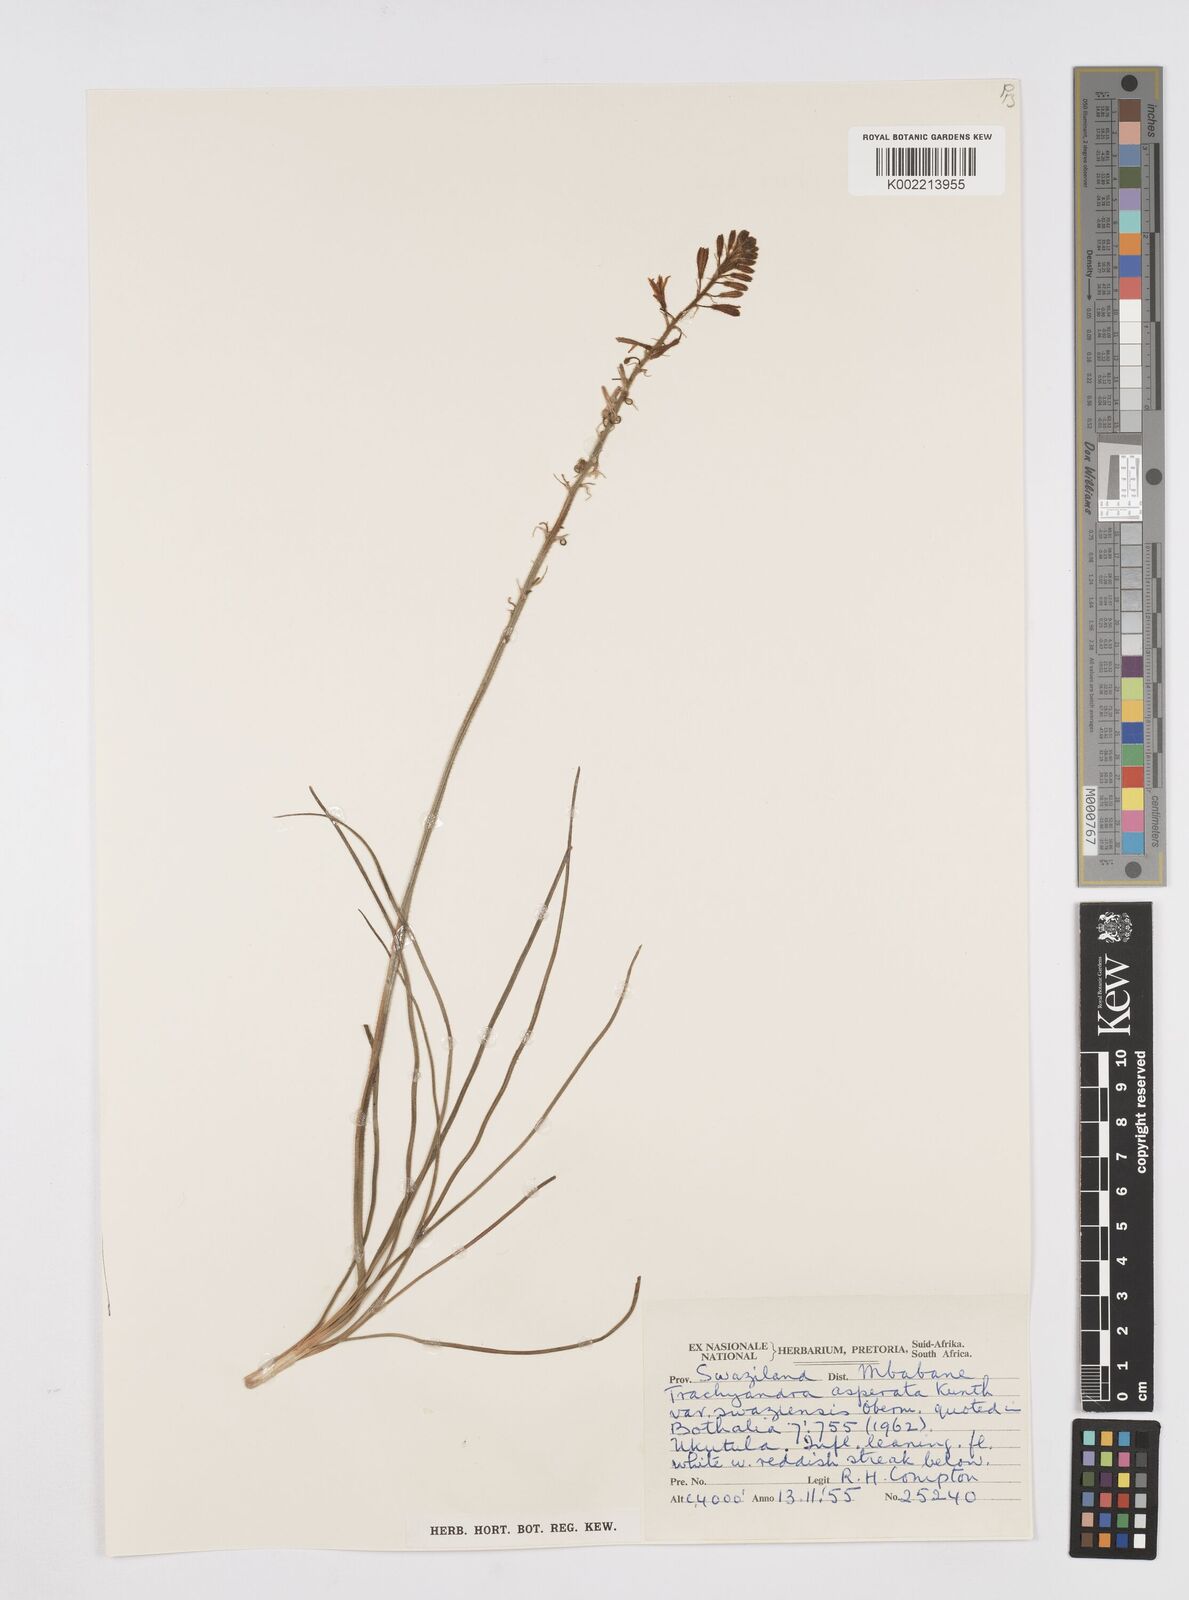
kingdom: Plantae
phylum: Tracheophyta
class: Liliopsida
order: Asparagales
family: Asphodelaceae
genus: Trachyandra
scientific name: Trachyandra asperata
